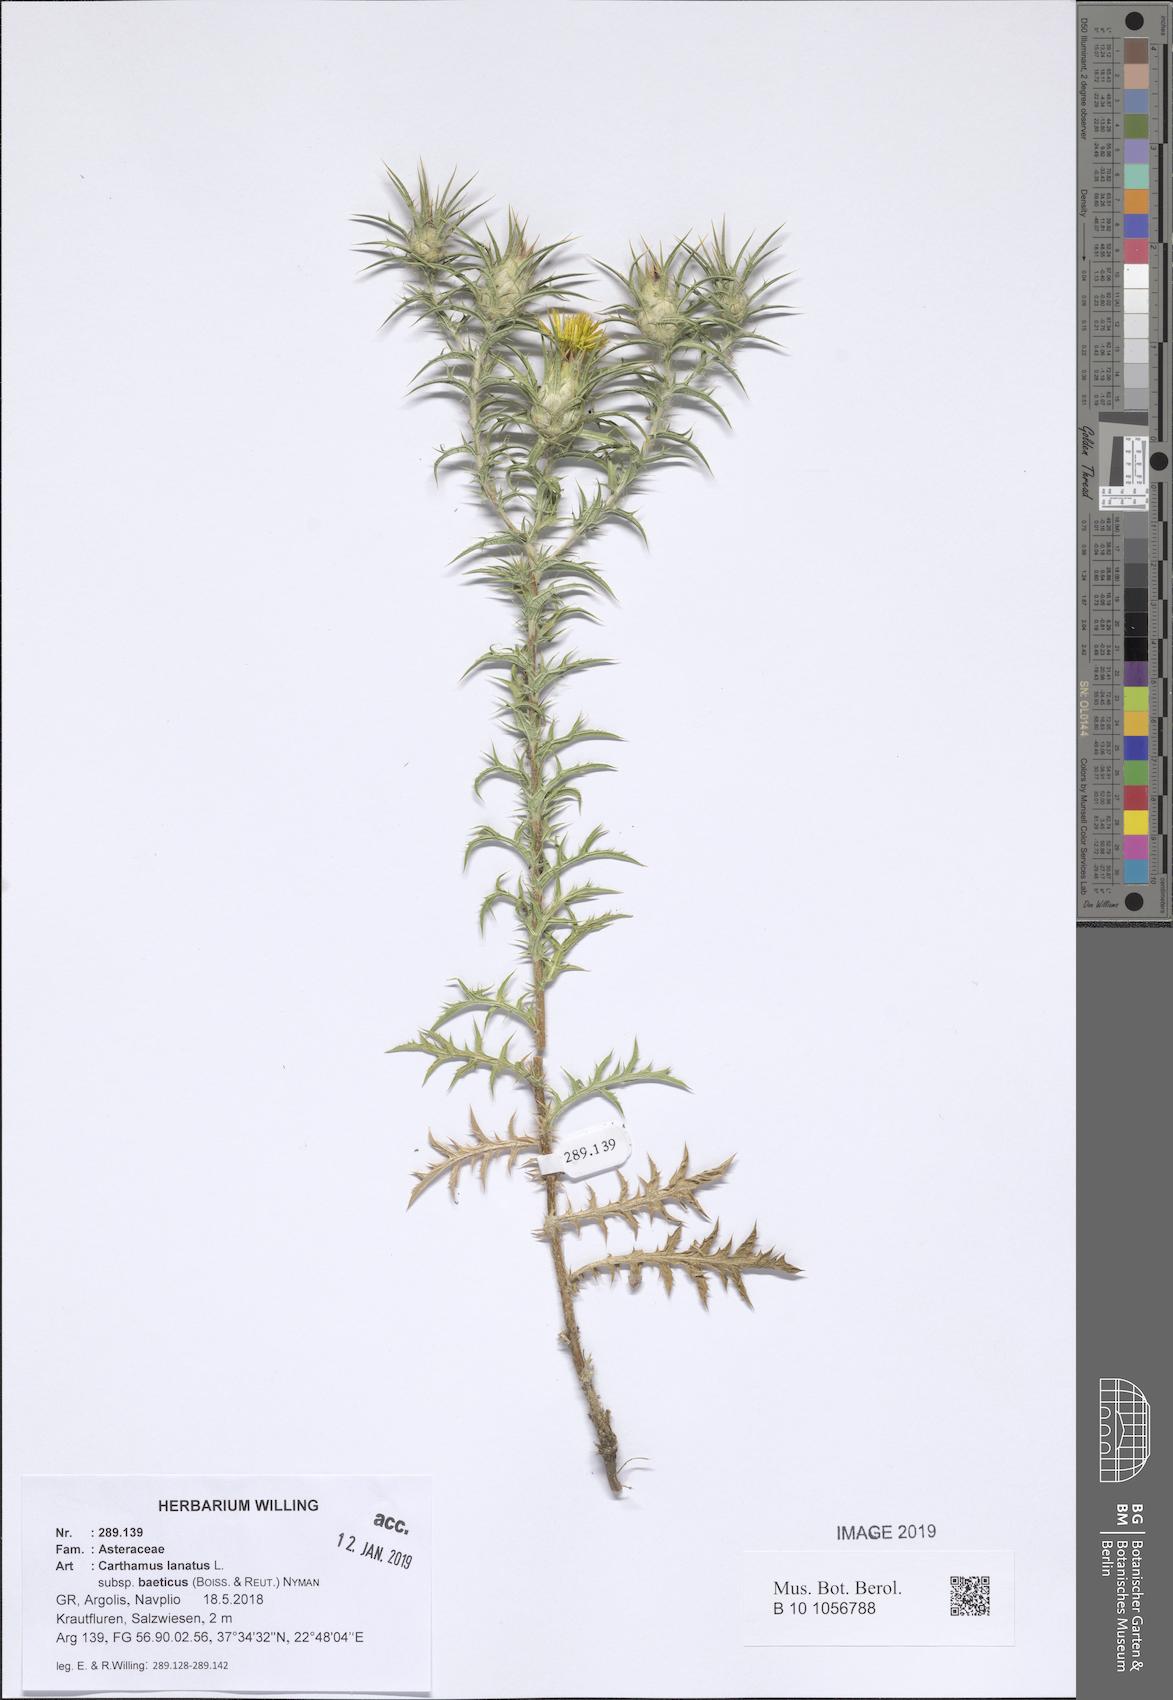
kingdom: Plantae
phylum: Tracheophyta
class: Magnoliopsida
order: Asterales
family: Asteraceae
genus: Carthamus
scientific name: Carthamus creticus
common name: Smooth distaff thistle
